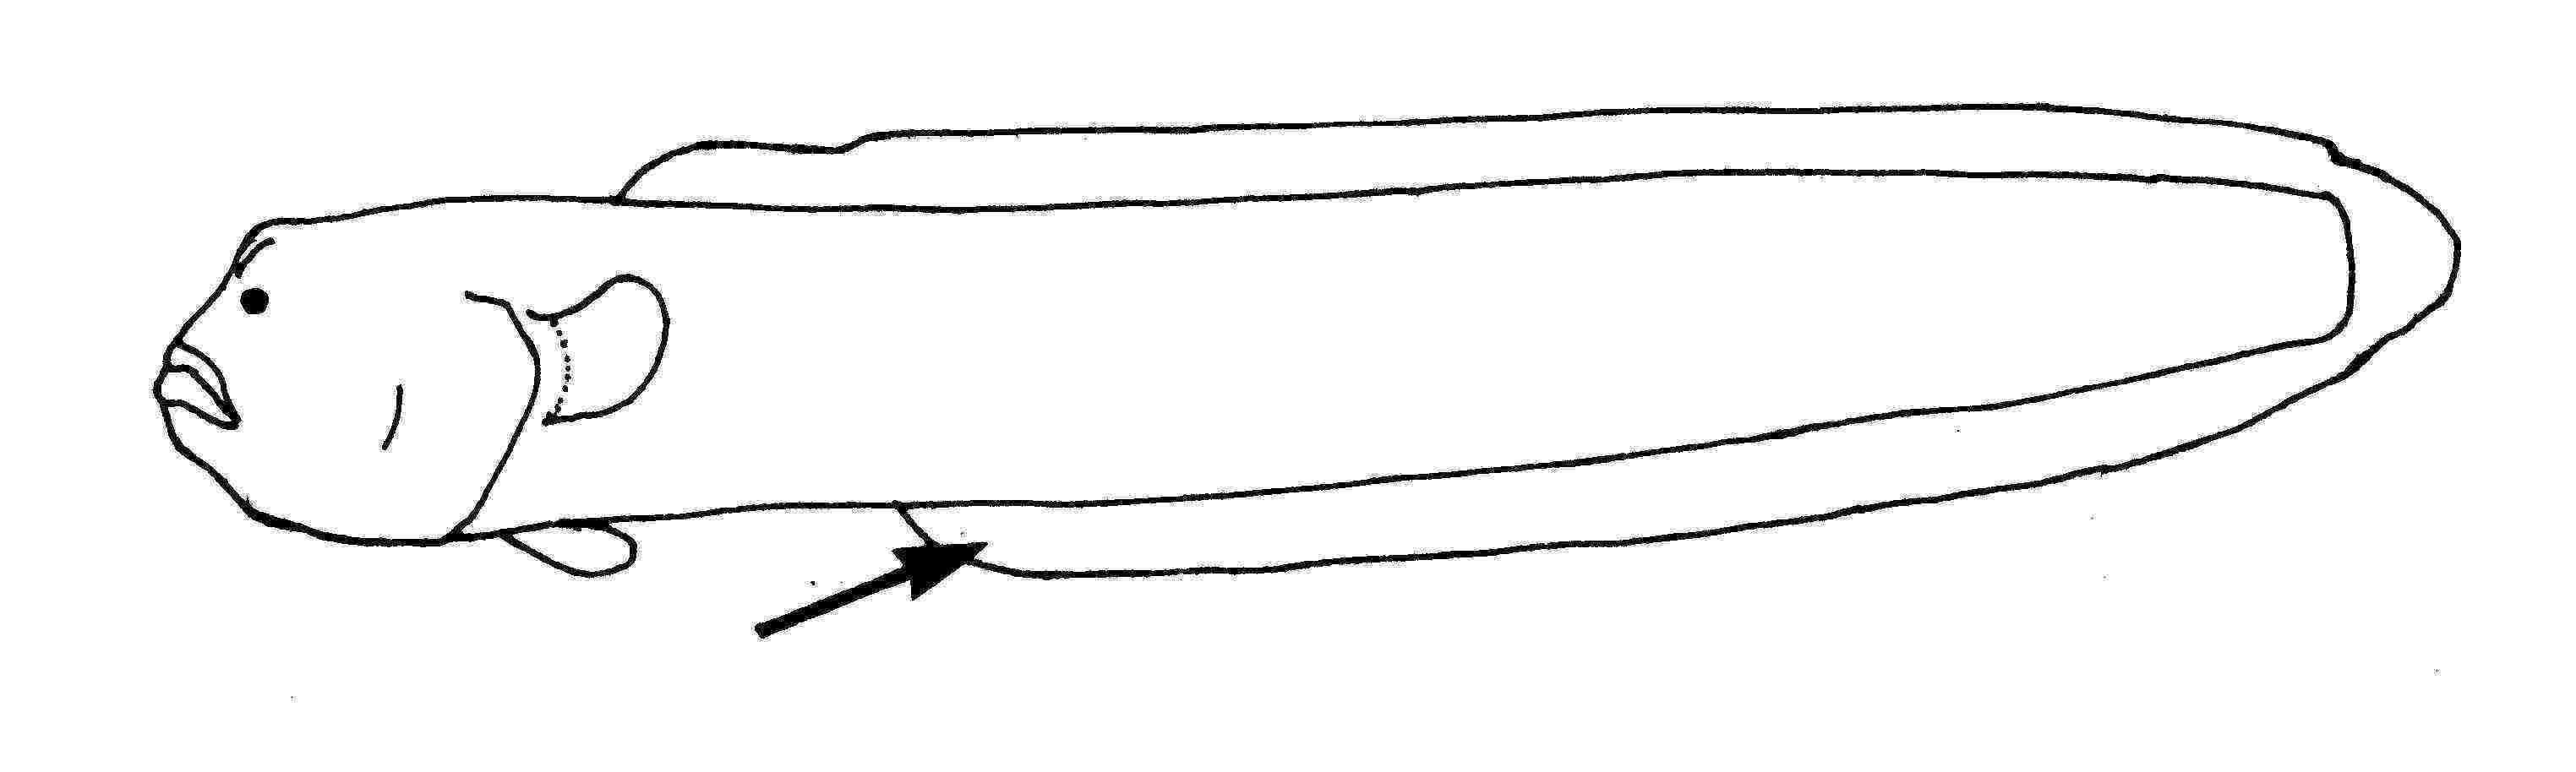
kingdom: Animalia
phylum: Chordata
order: Perciformes
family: Gobiidae
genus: Ctenotrypauchen
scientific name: Ctenotrypauchen
